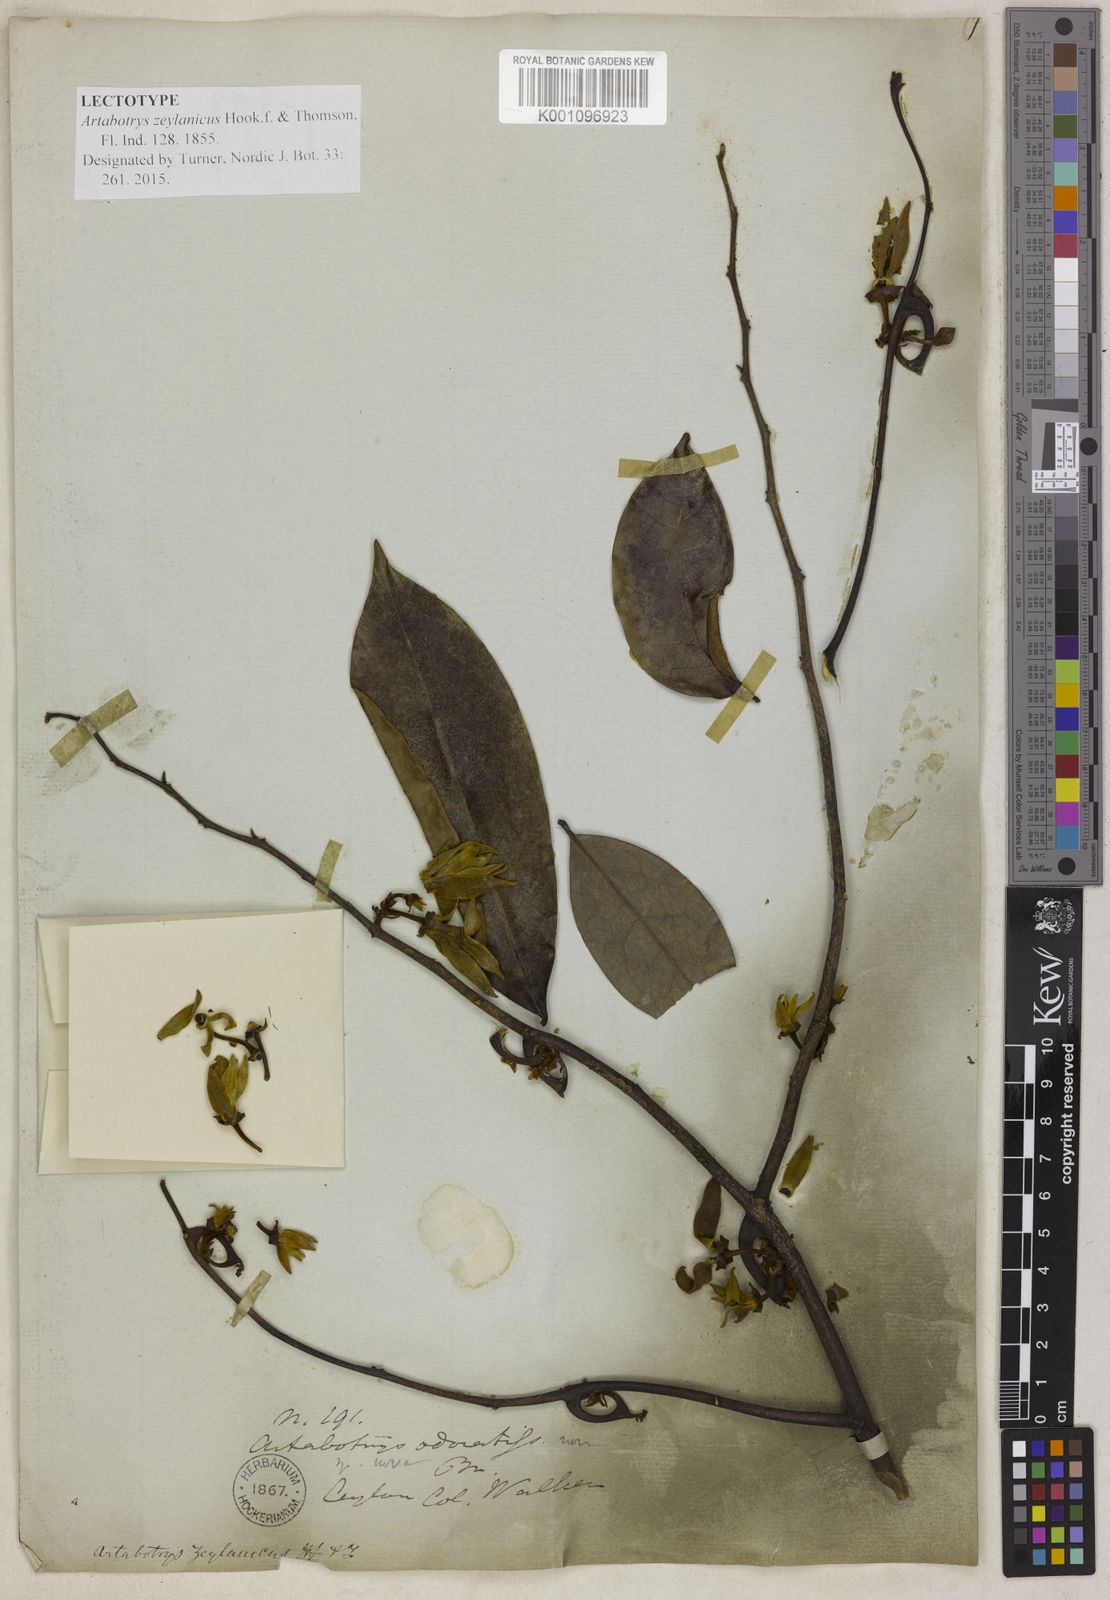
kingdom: Plantae
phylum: Tracheophyta
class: Magnoliopsida
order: Magnoliales
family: Annonaceae
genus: Artabotrys
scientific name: Artabotrys zeylanicus
